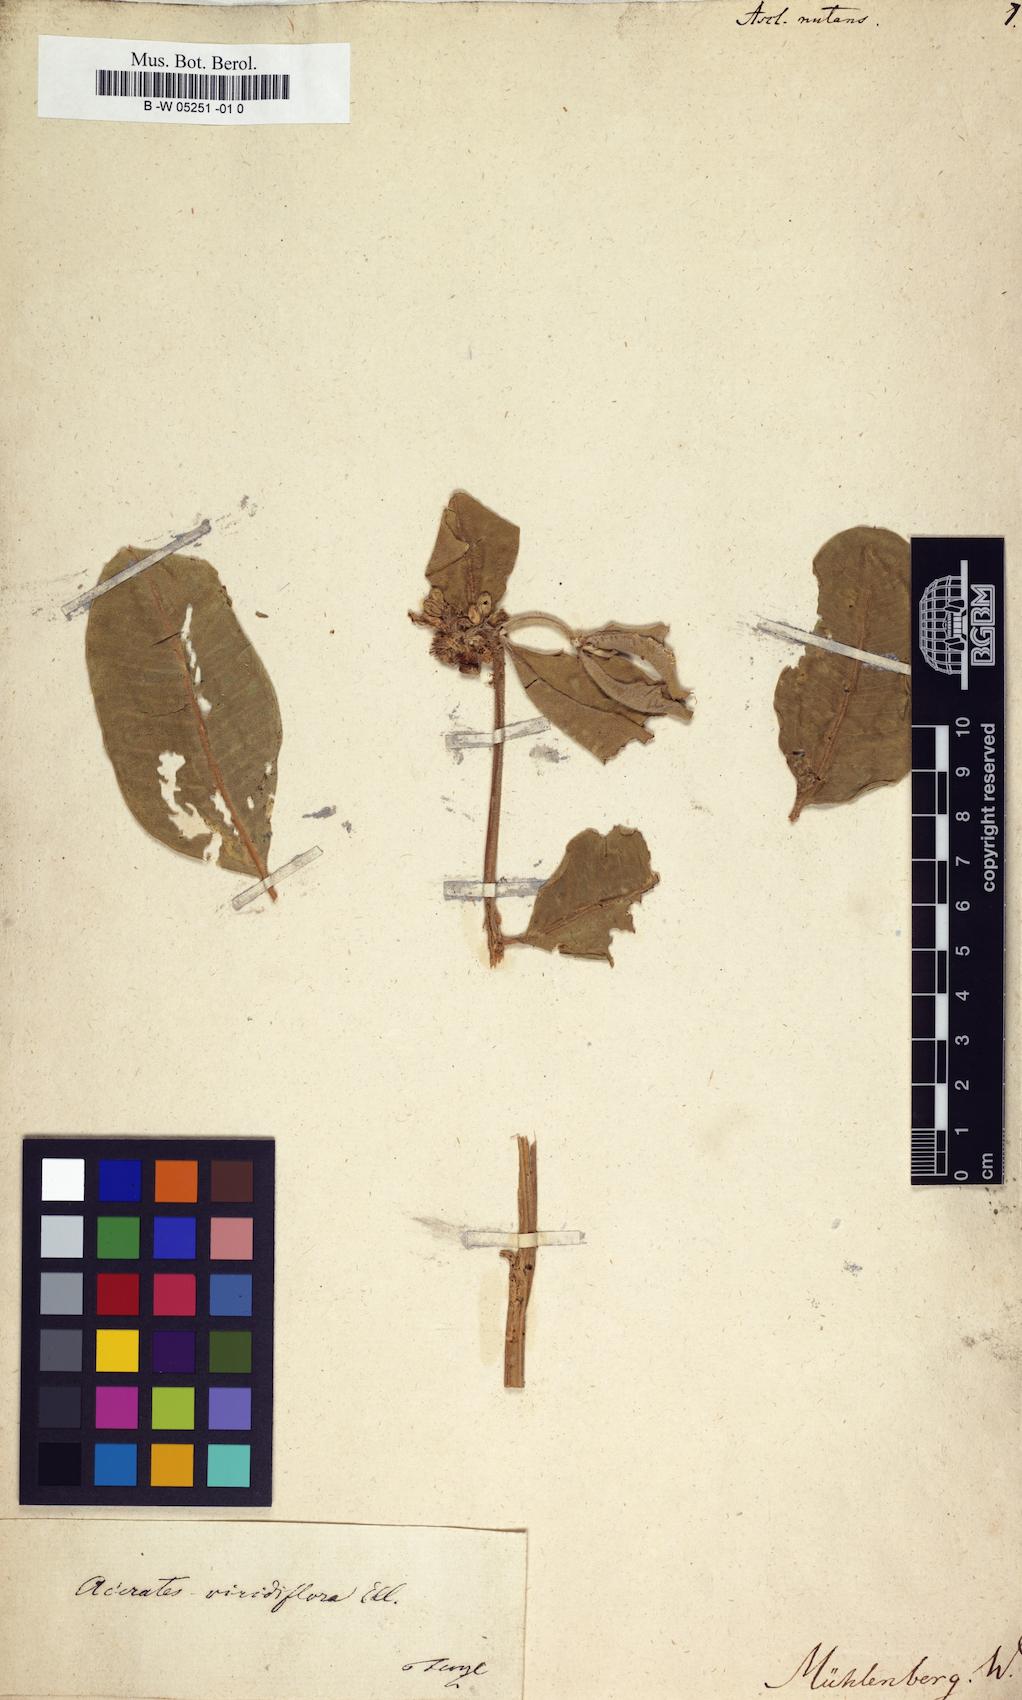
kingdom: Plantae
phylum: Tracheophyta
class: Magnoliopsida
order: Gentianales
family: Apocynaceae
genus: Gomphocarpus
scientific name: Gomphocarpus tomentosus
